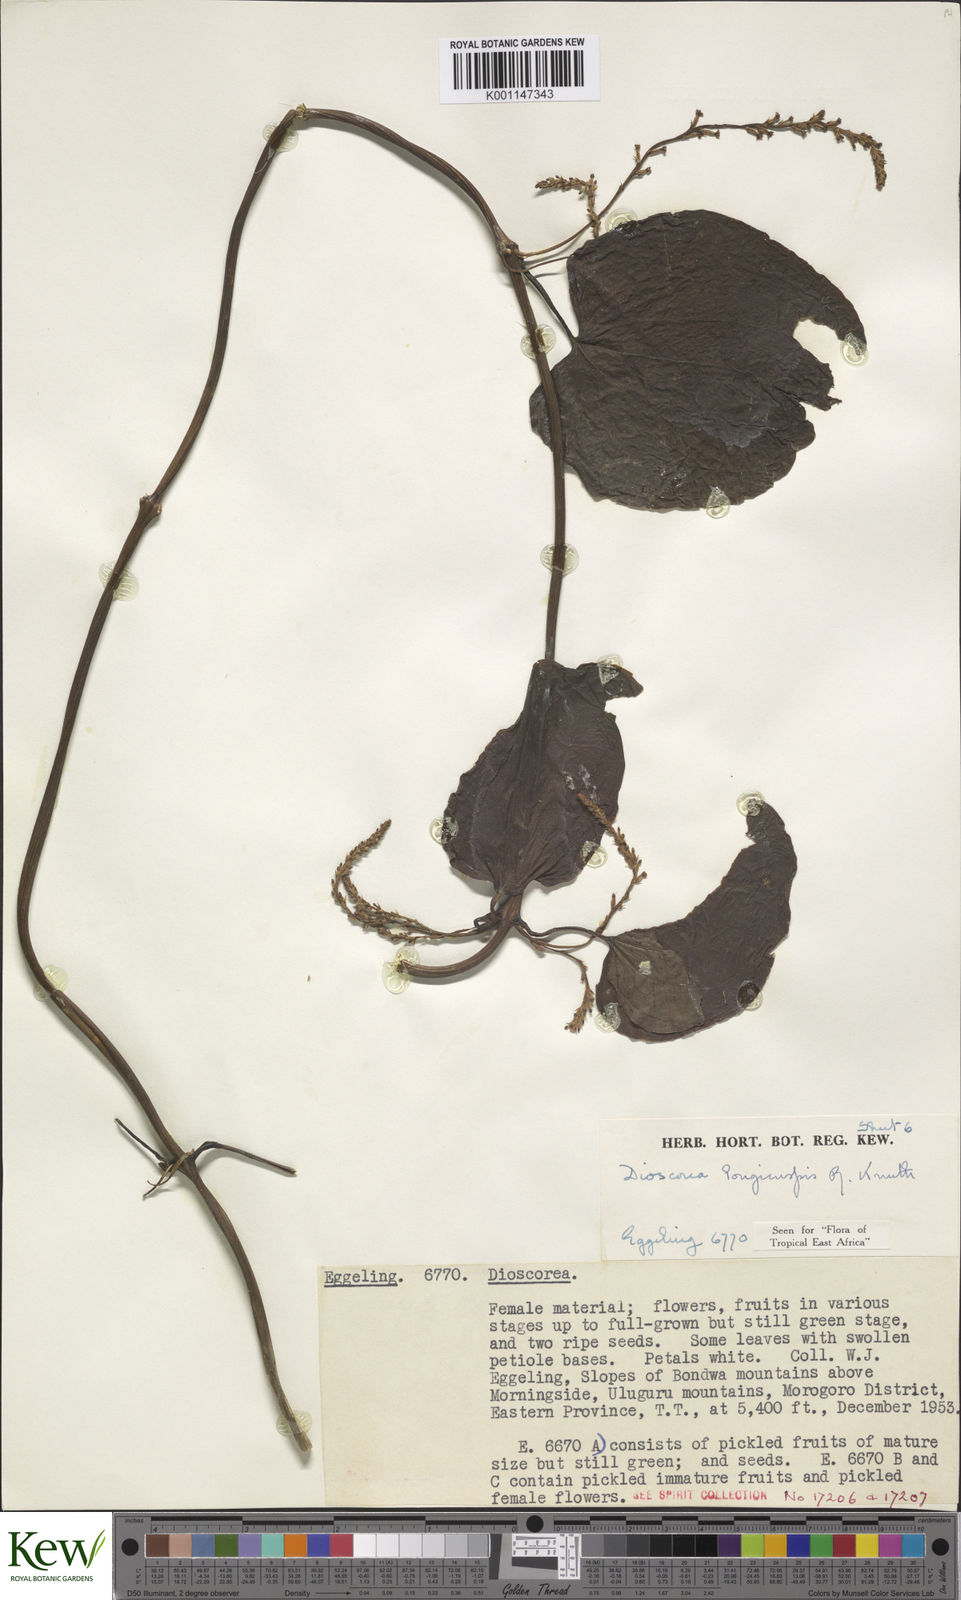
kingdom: Plantae
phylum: Tracheophyta
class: Liliopsida
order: Dioscoreales
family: Dioscoreaceae
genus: Dioscorea
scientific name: Dioscorea longicuspis
